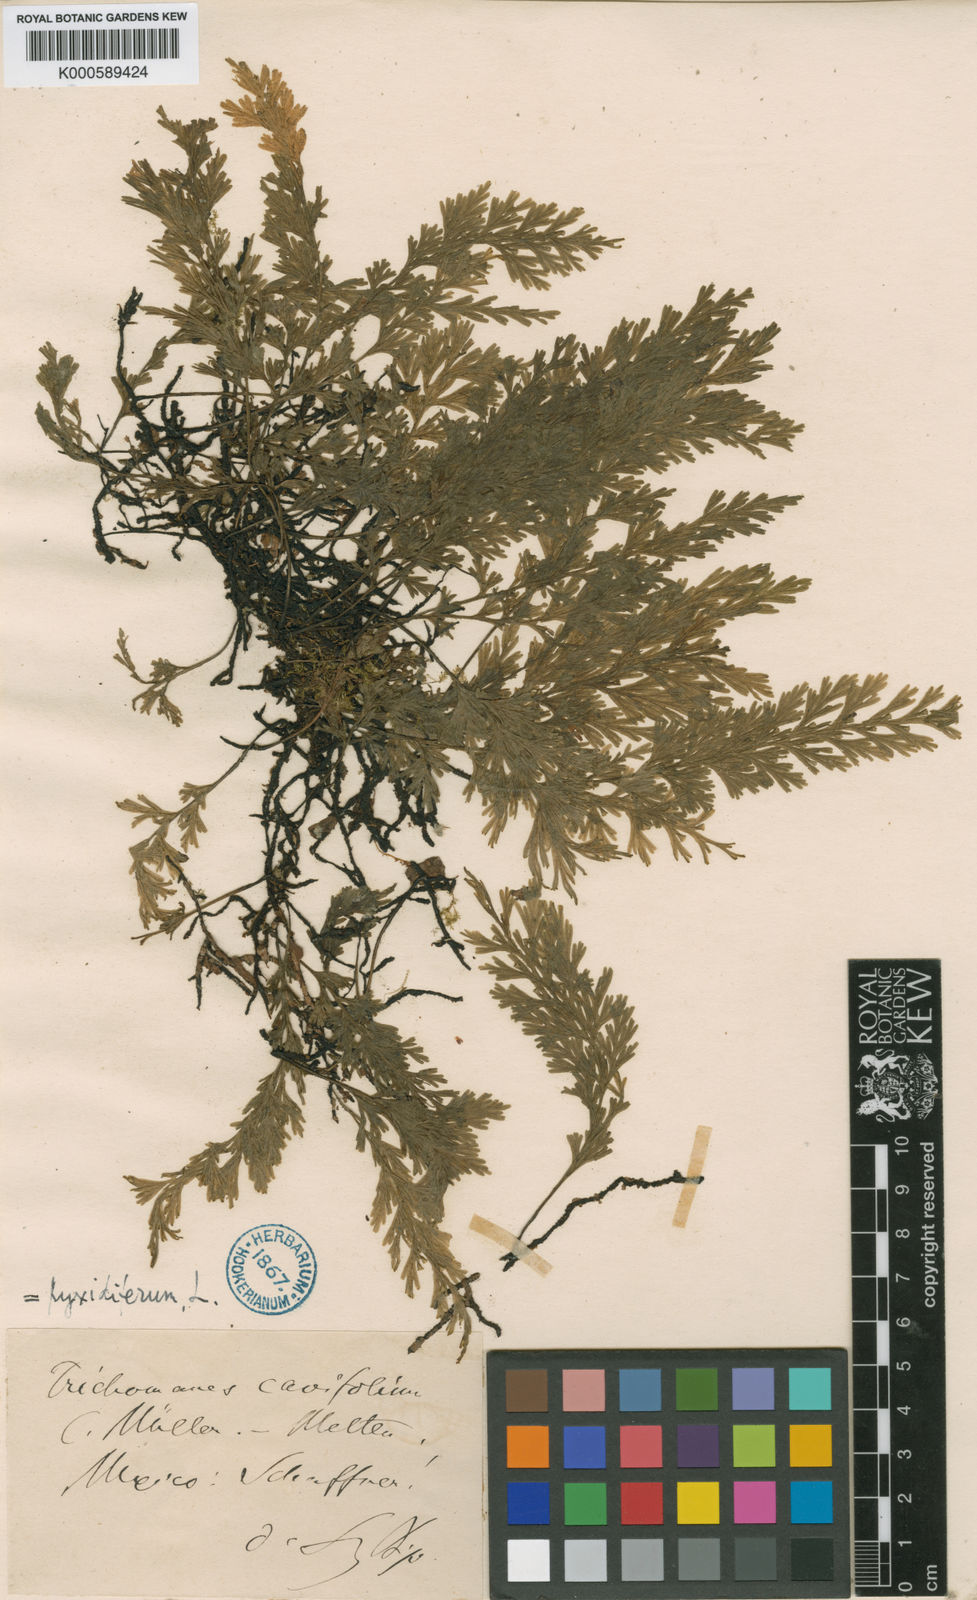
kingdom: Plantae
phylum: Tracheophyta
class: Polypodiopsida
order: Hymenophyllales
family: Hymenophyllaceae
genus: Polyphlebium
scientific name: Polyphlebium pyxidiferum
